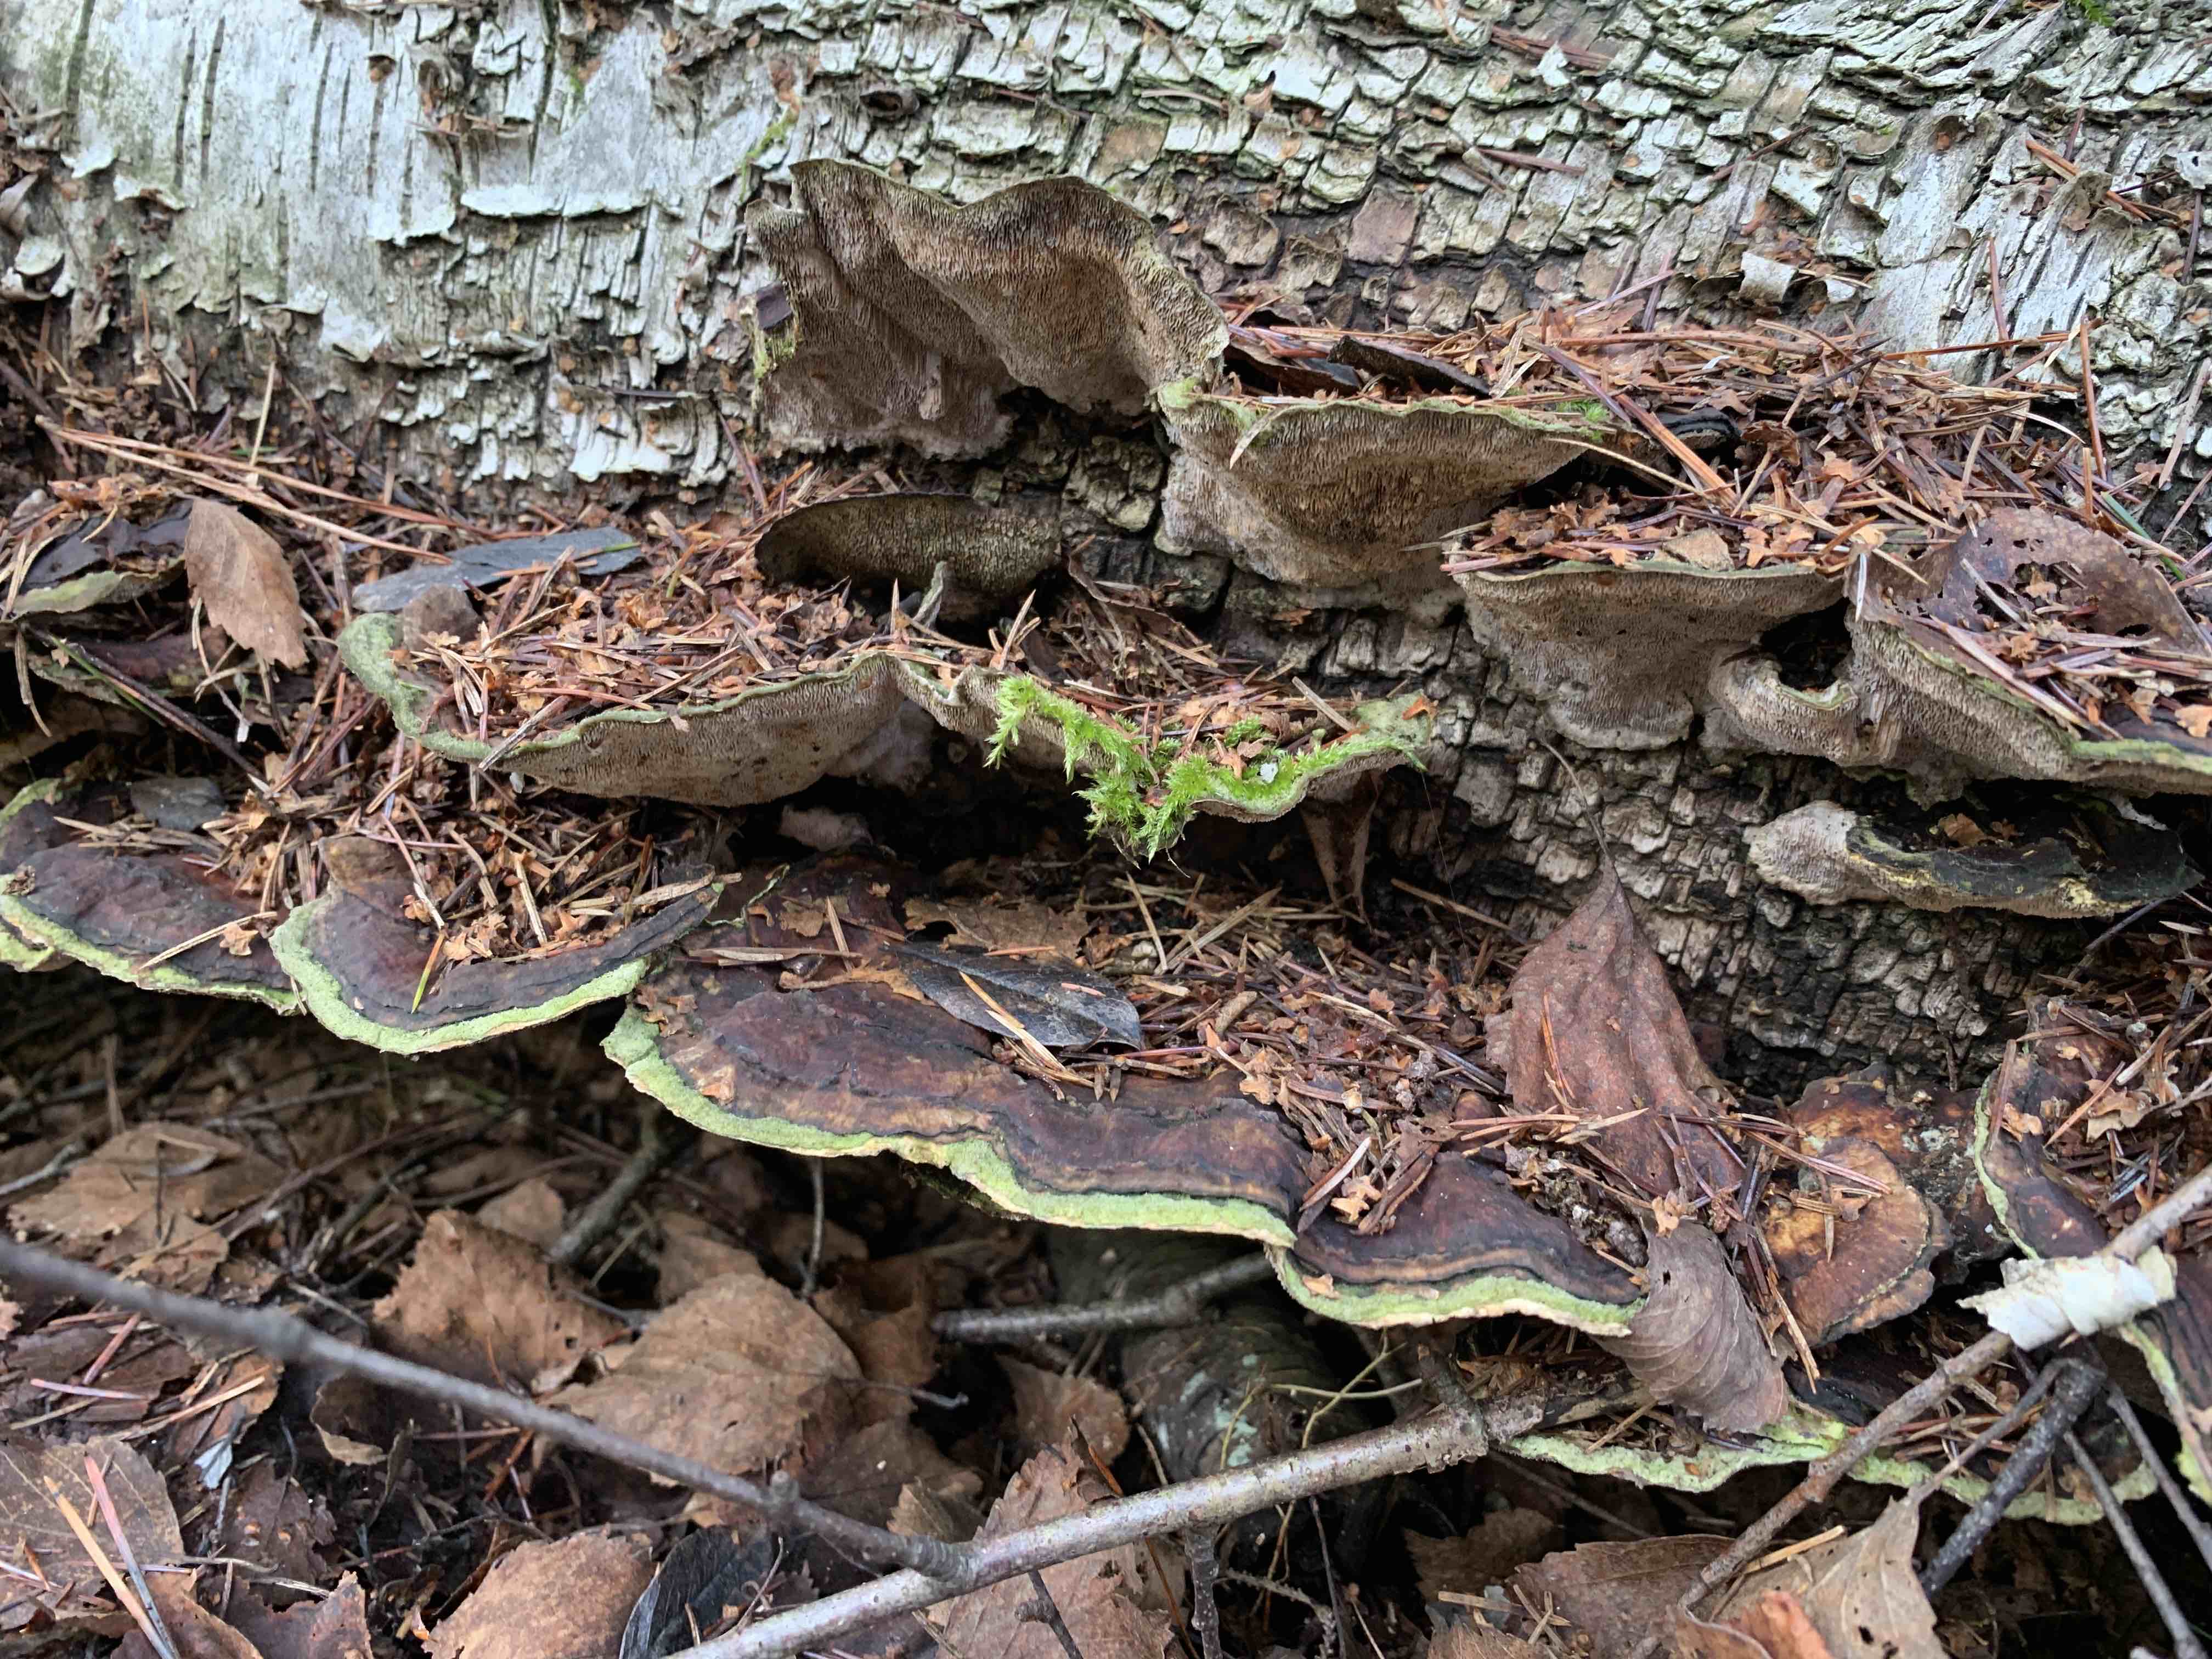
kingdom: Fungi
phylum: Basidiomycota
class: Agaricomycetes
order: Polyporales
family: Cerrenaceae
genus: Cerrena
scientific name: Cerrena unicolor
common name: ensfarvet læderporesvamp
